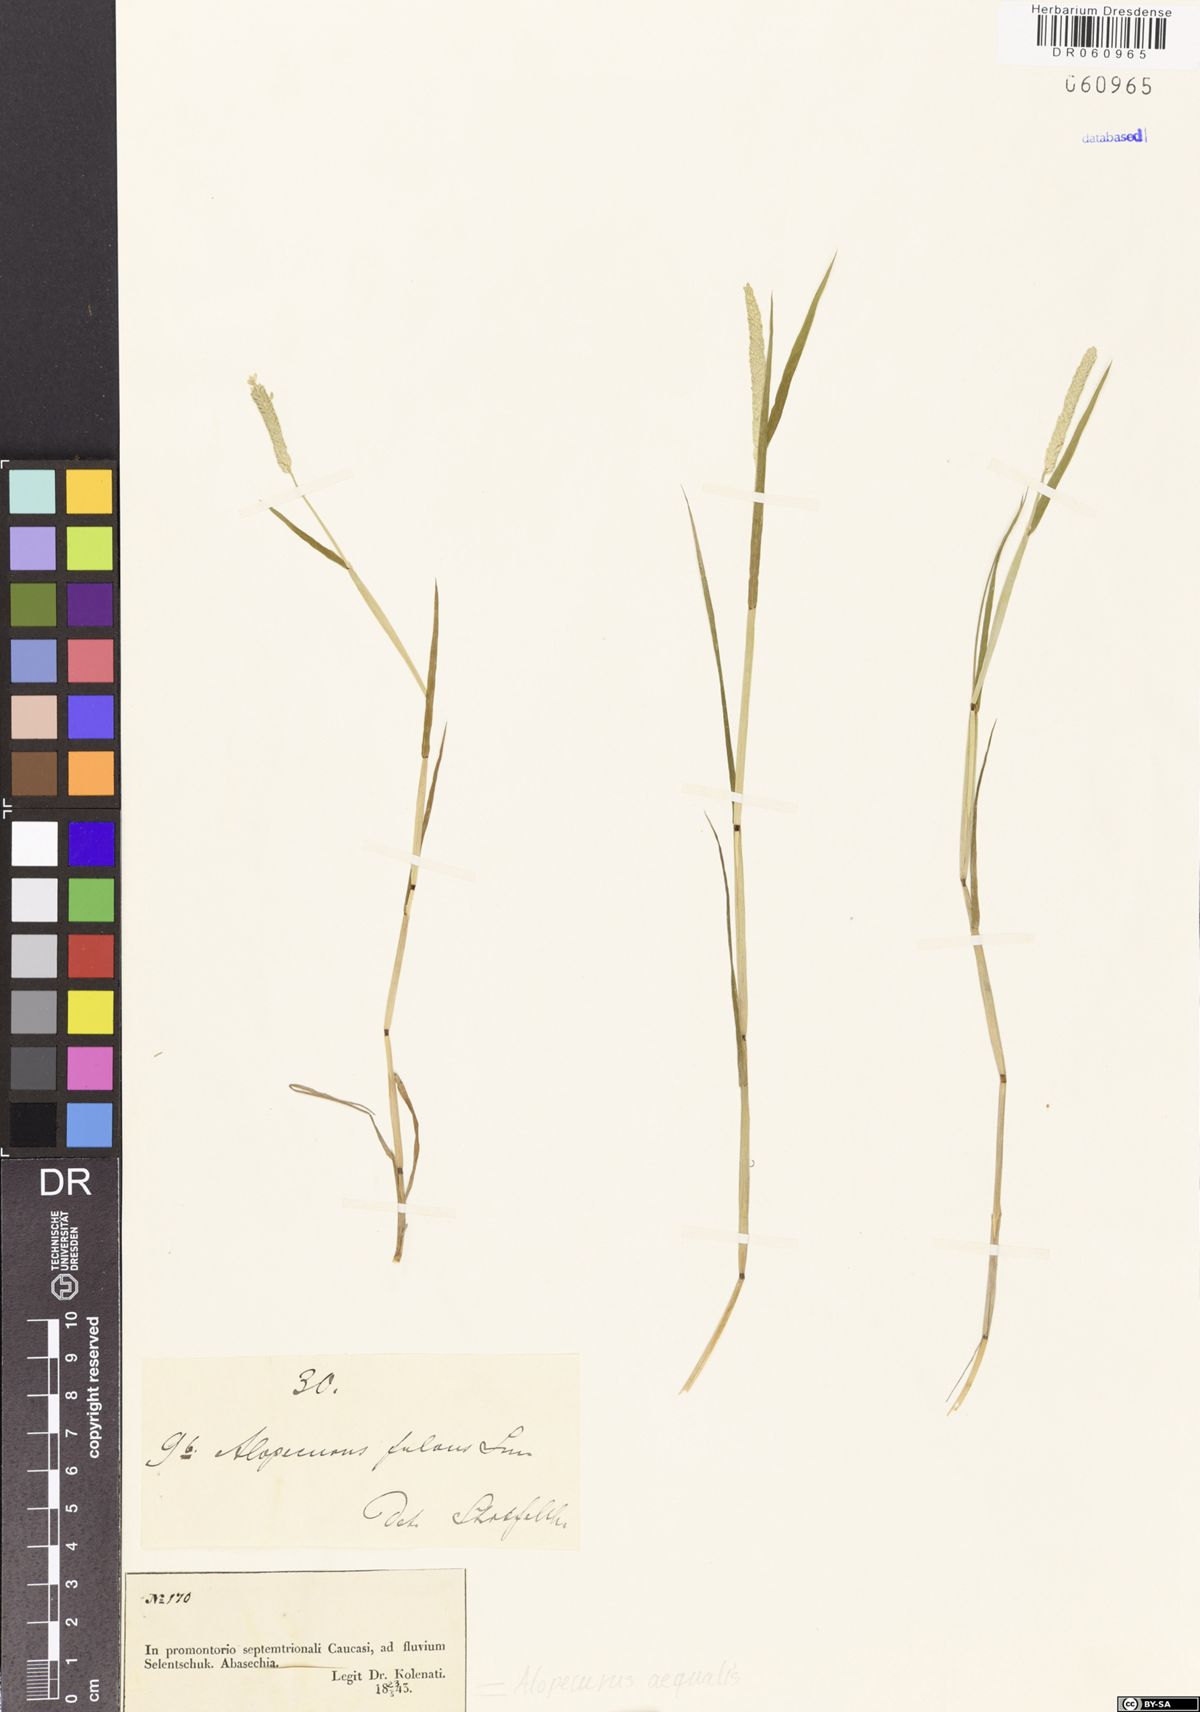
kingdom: Plantae
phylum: Tracheophyta
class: Liliopsida
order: Poales
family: Poaceae
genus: Alopecurus
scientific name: Alopecurus aequalis
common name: Orange foxtail
